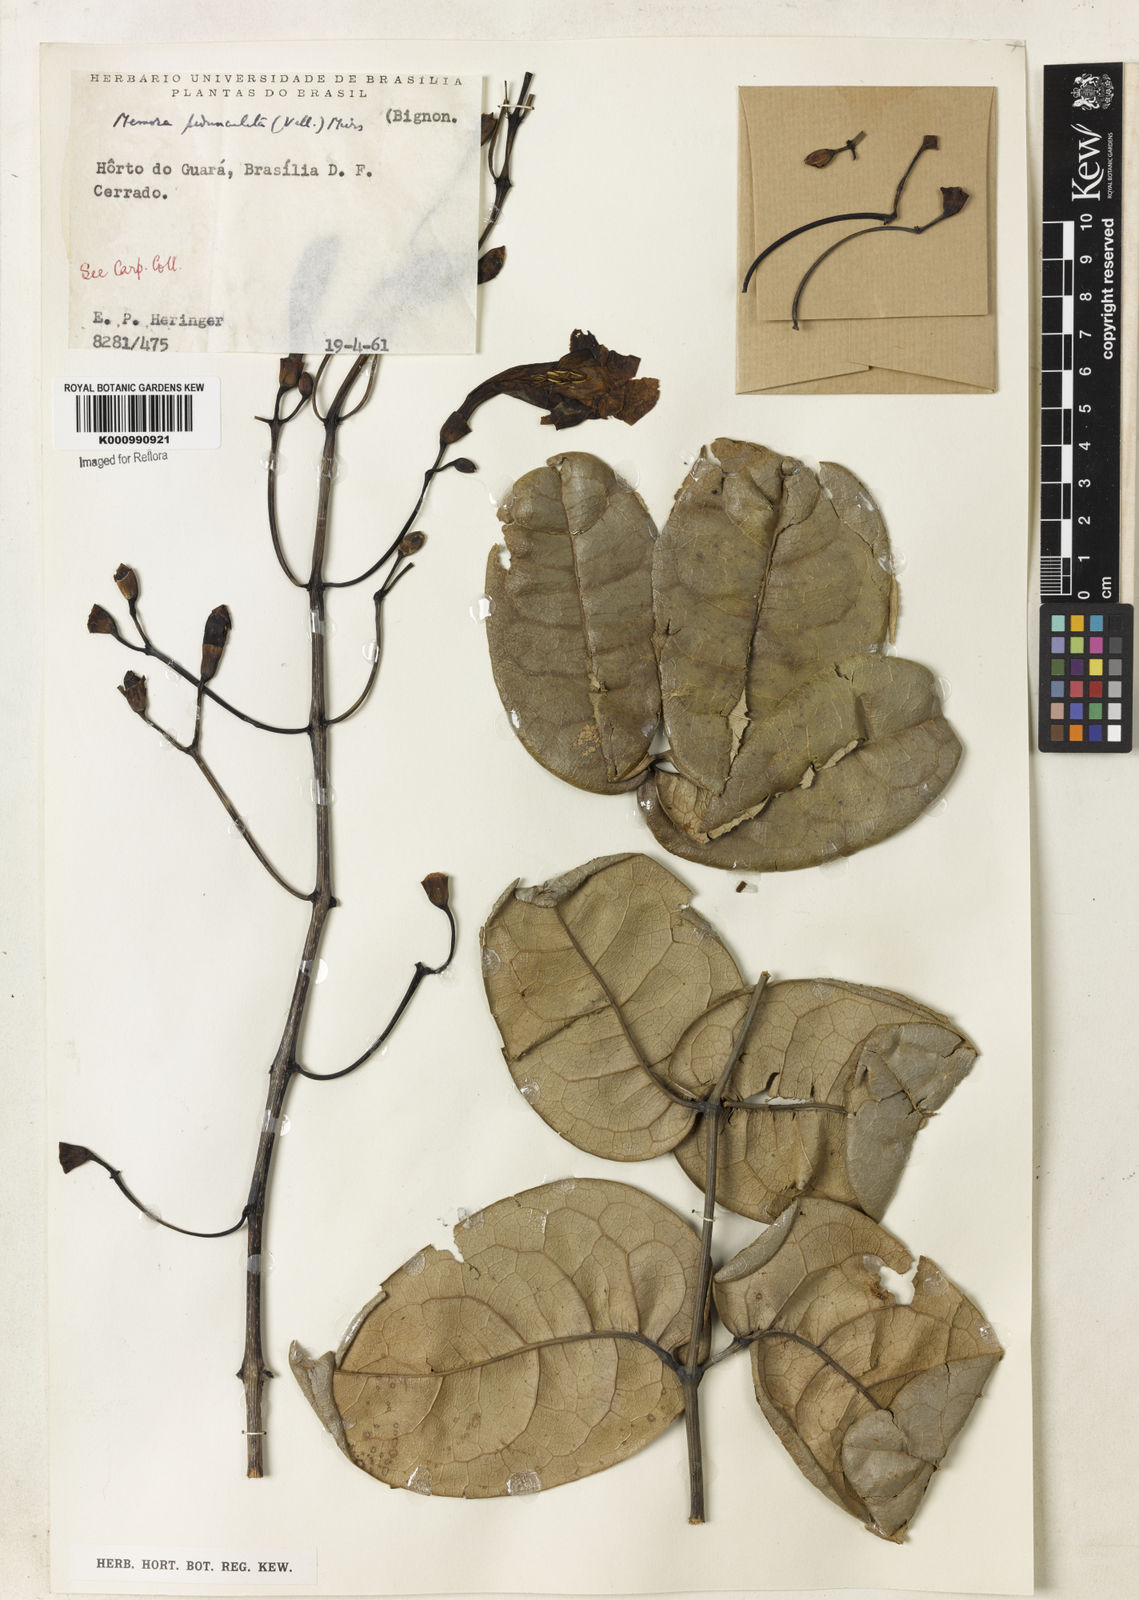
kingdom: Plantae
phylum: Tracheophyta
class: Magnoliopsida
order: Lamiales
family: Bignoniaceae
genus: Adenocalymma
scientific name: Adenocalymma pedunculatum
